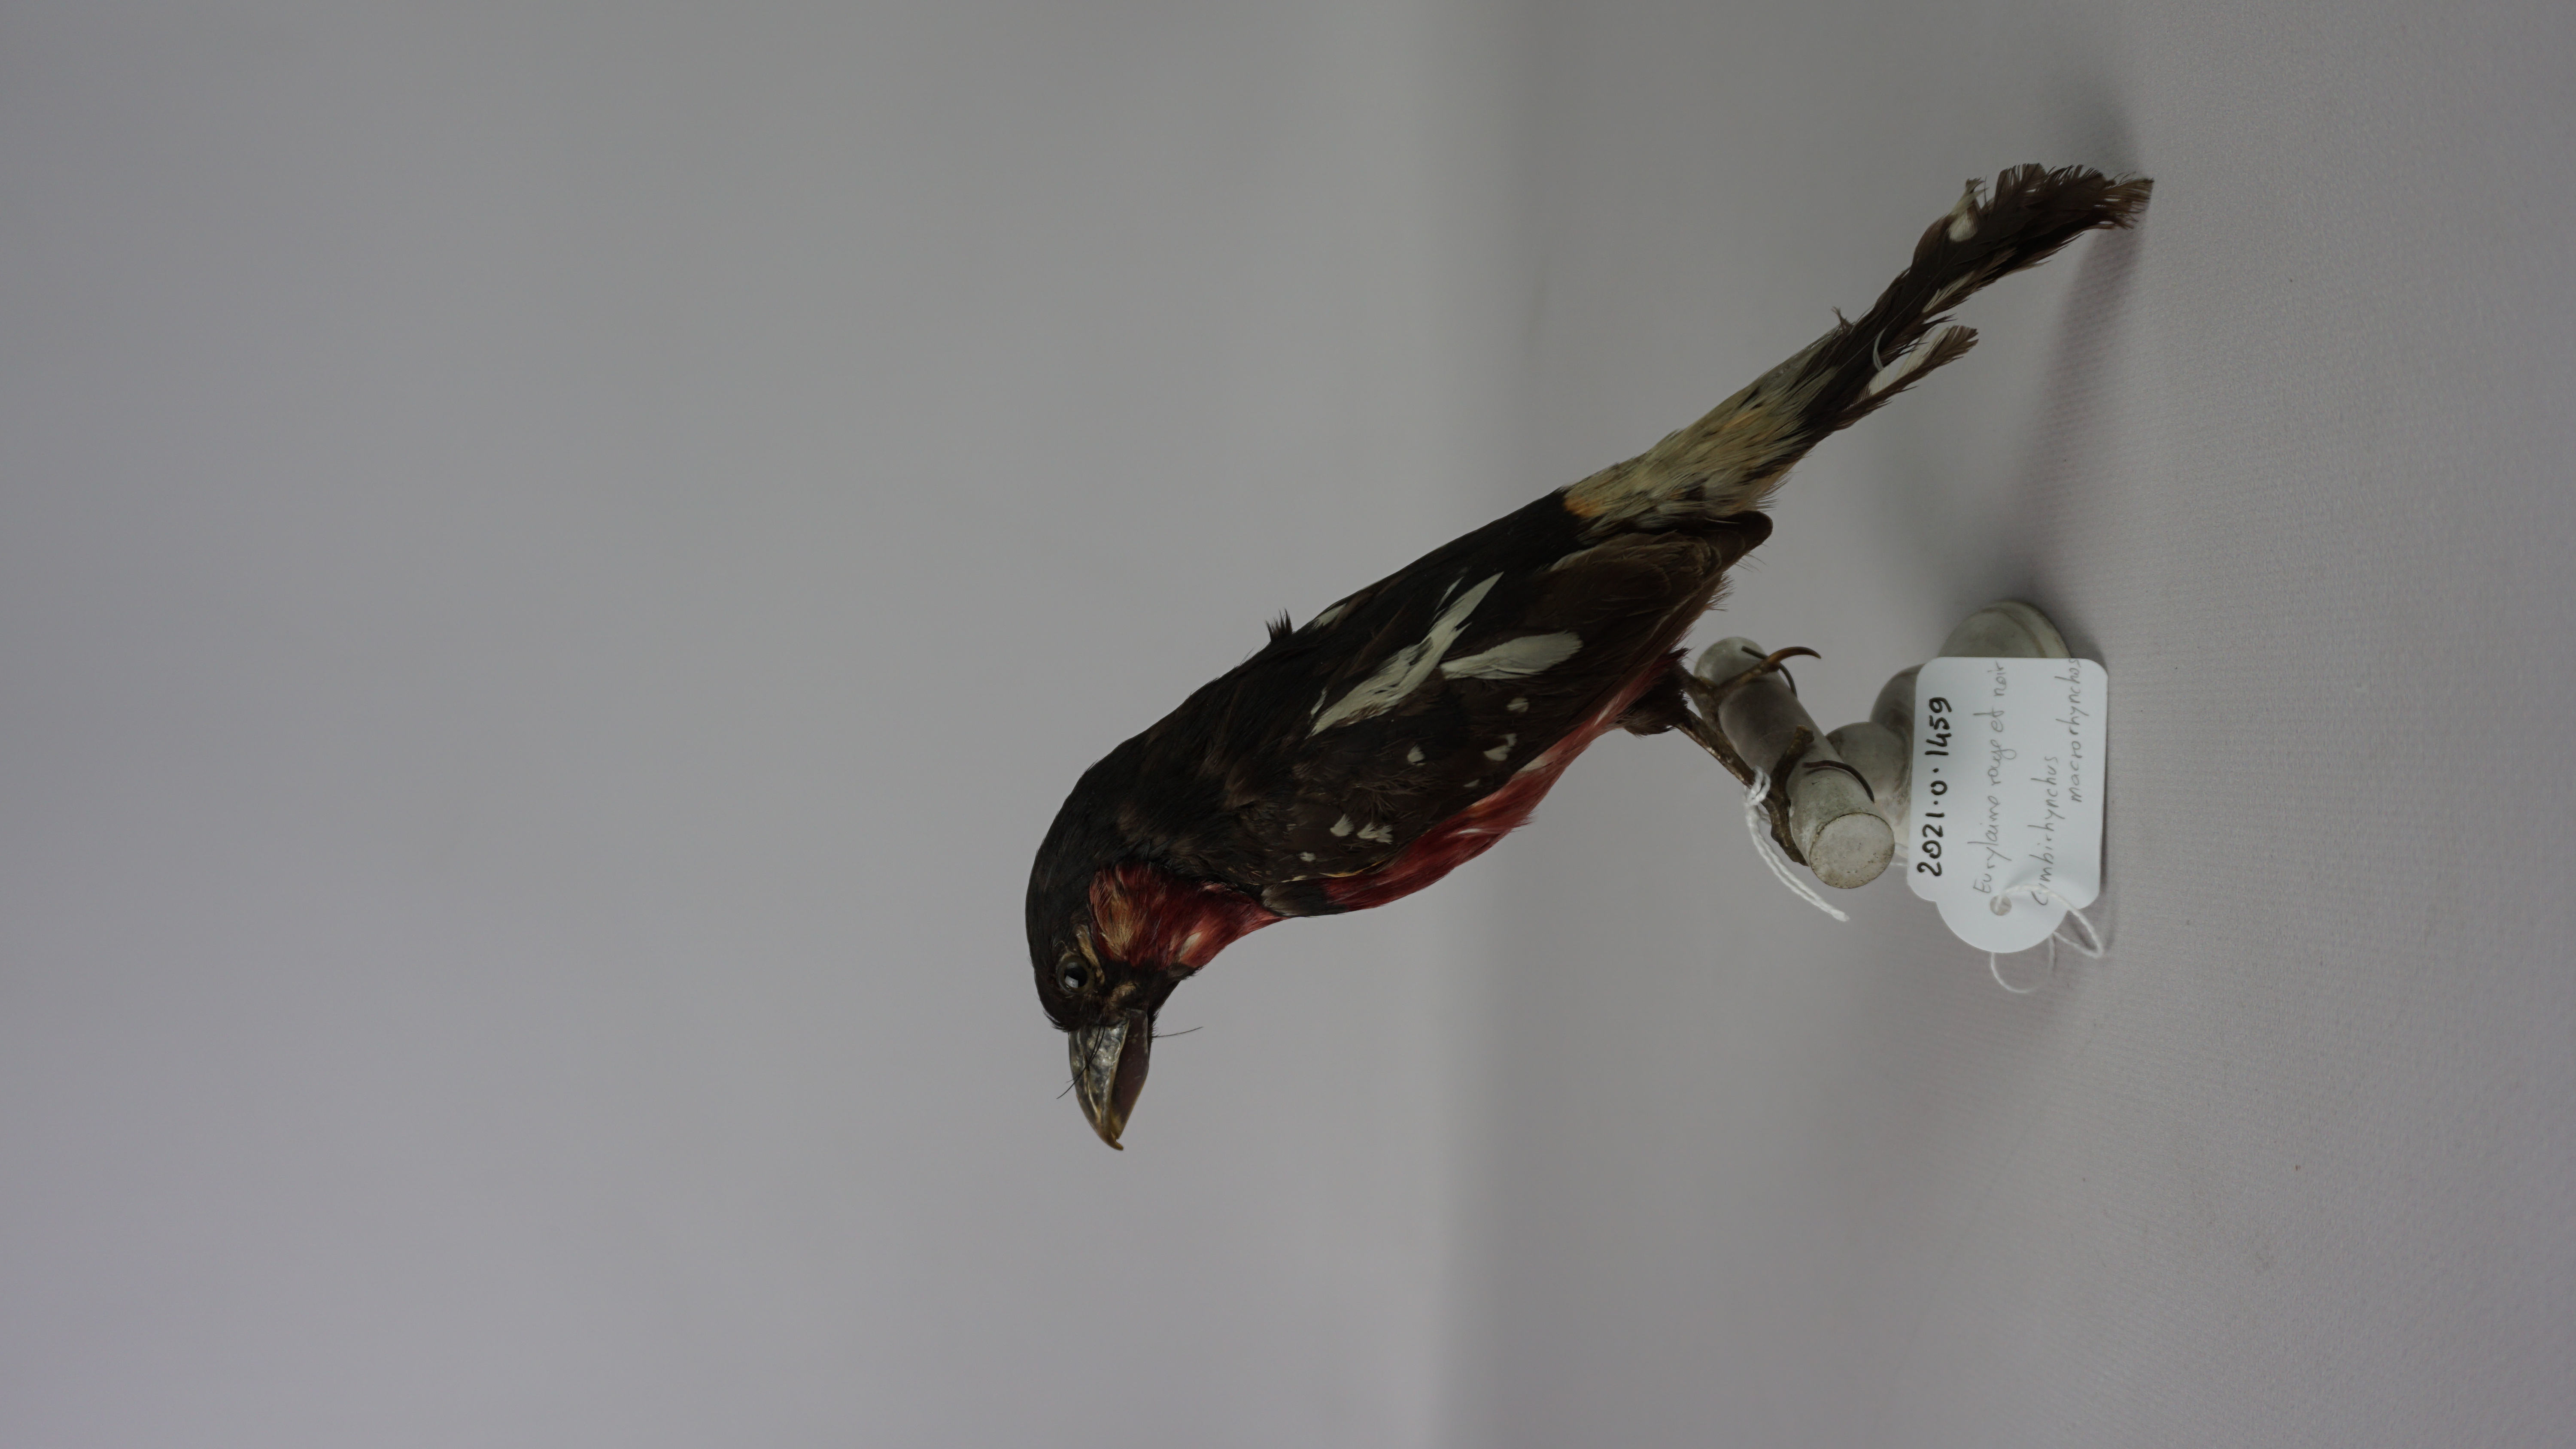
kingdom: Animalia
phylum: Chordata
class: Aves
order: Passeriformes
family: Eurylaimidae
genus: Cymbirhynchus
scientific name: Cymbirhynchus macrorhynchos
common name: Black-and-red broadbill
